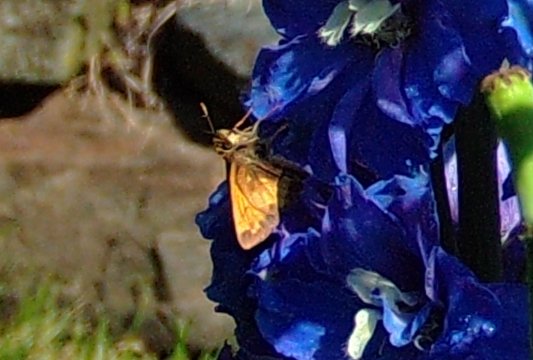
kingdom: Animalia
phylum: Arthropoda
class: Insecta
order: Lepidoptera
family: Hesperiidae
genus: Lon
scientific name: Lon hobomok
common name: Hobomok Skipper
